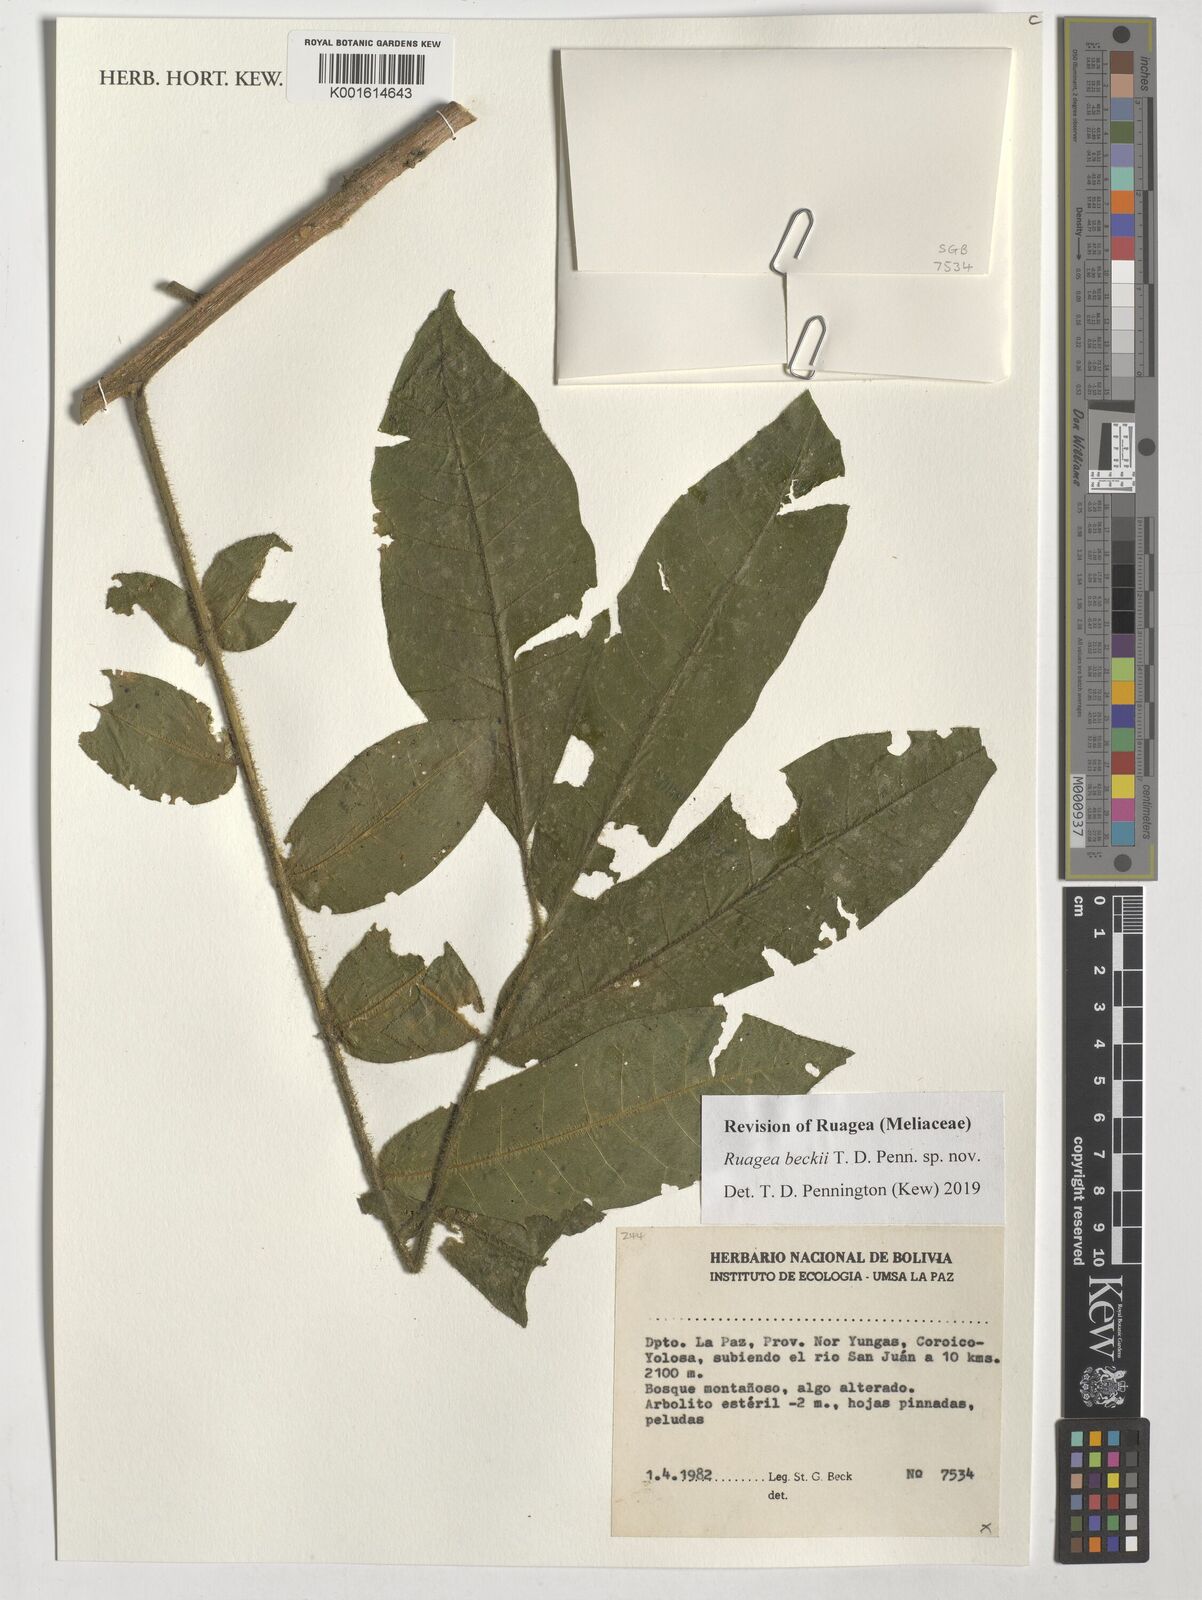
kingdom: Plantae
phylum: Tracheophyta
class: Magnoliopsida
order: Sapindales
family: Meliaceae
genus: Ruagea
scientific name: Ruagea
